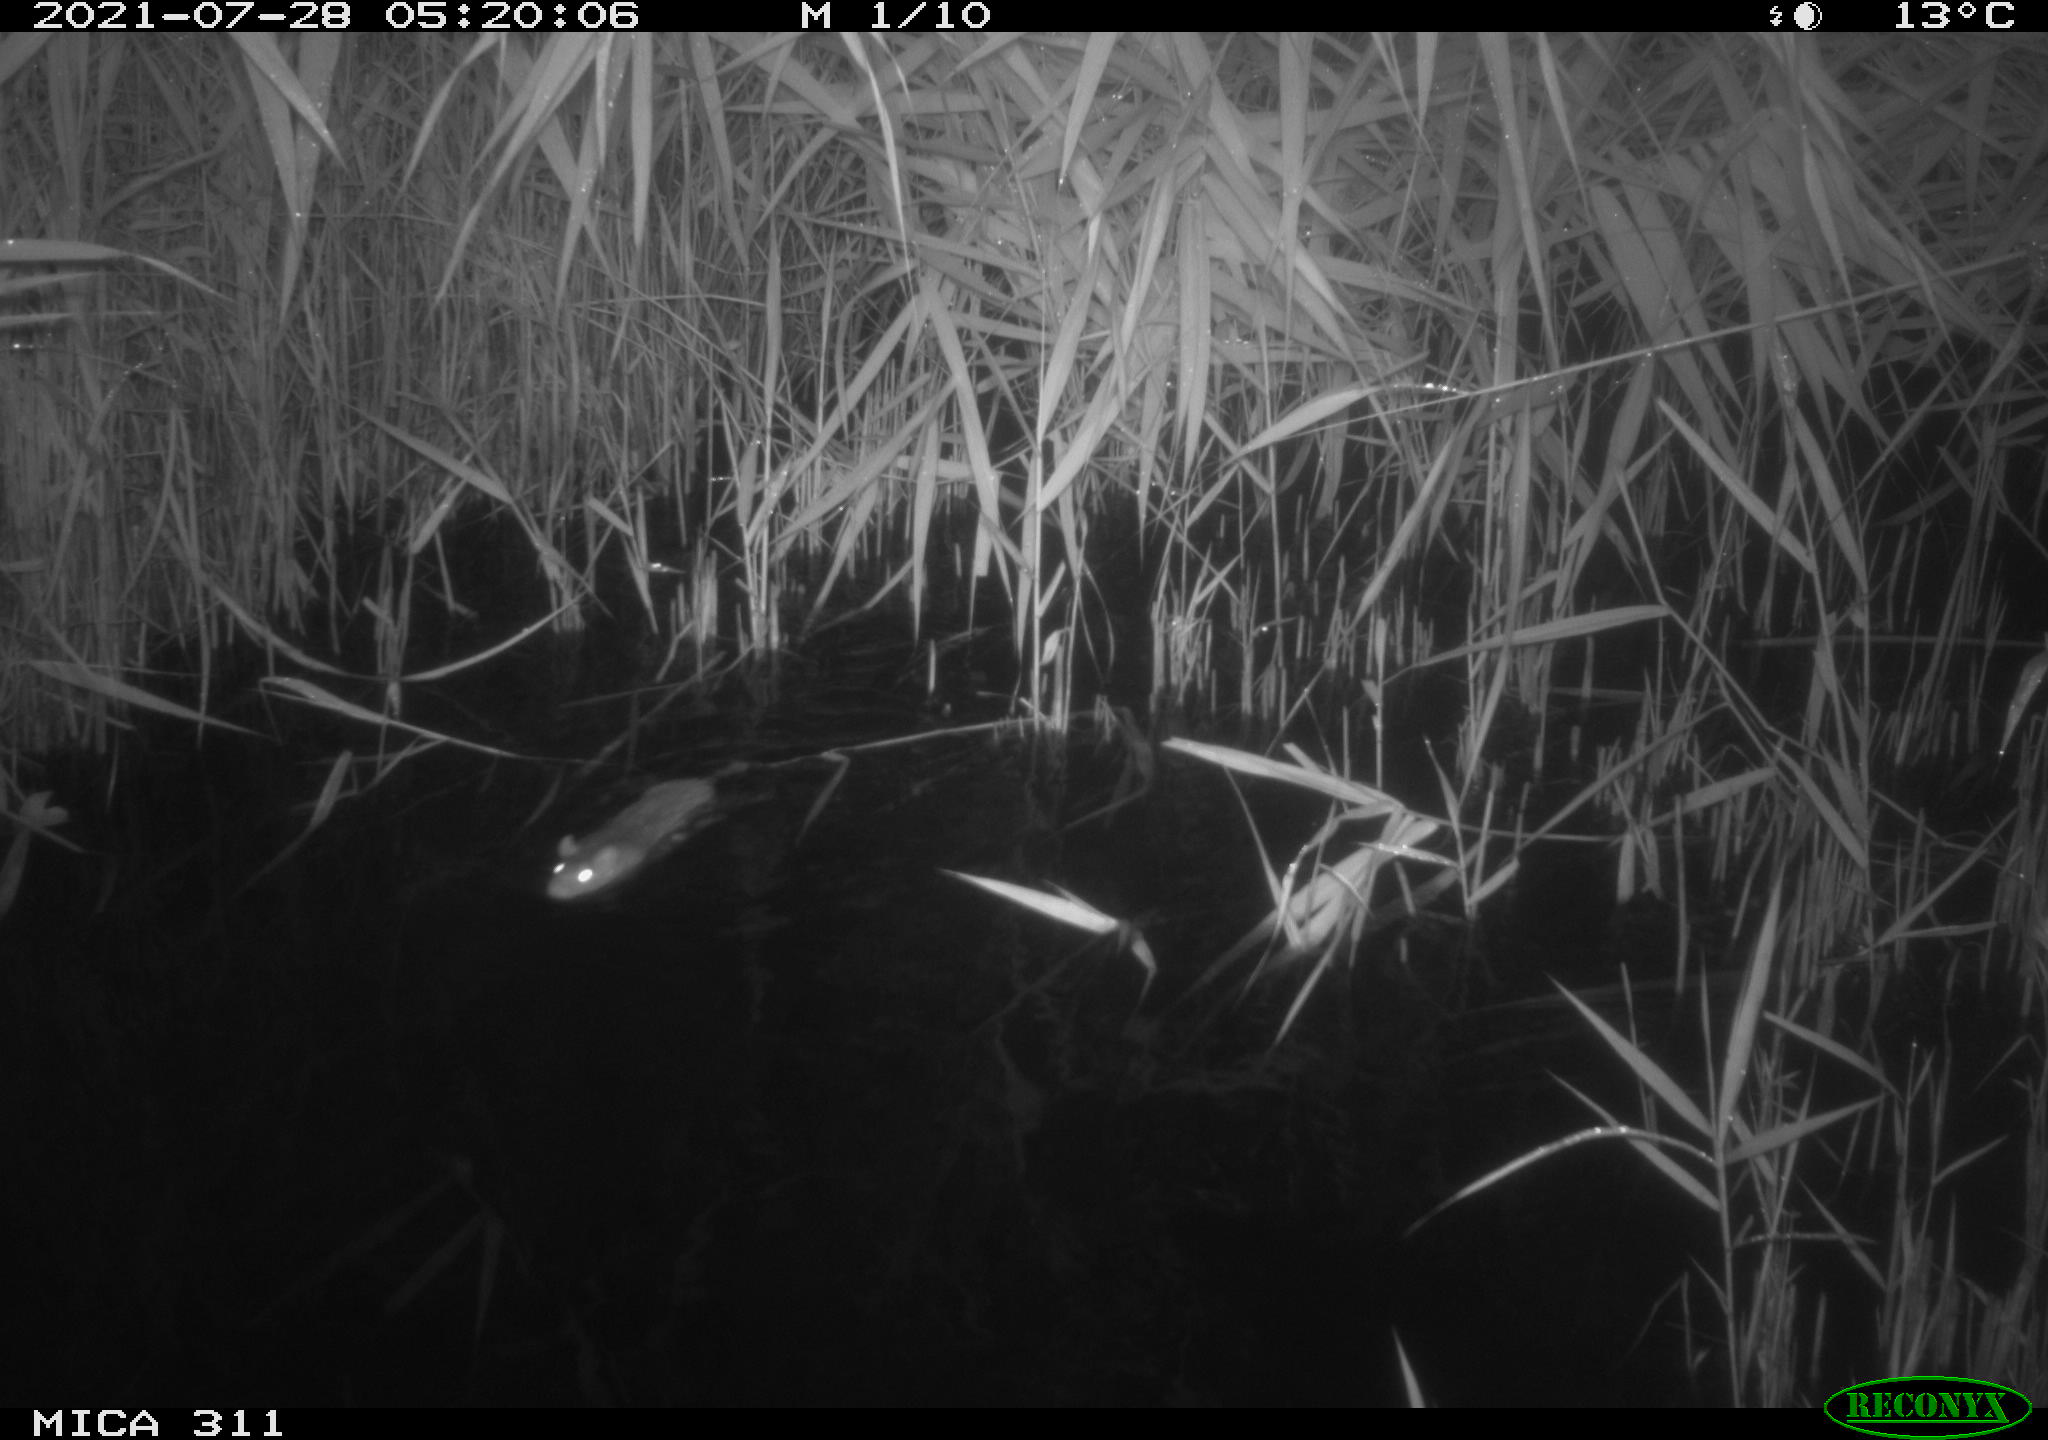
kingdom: Animalia
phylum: Chordata
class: Mammalia
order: Rodentia
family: Muridae
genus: Rattus
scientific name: Rattus norvegicus
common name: Brown rat
